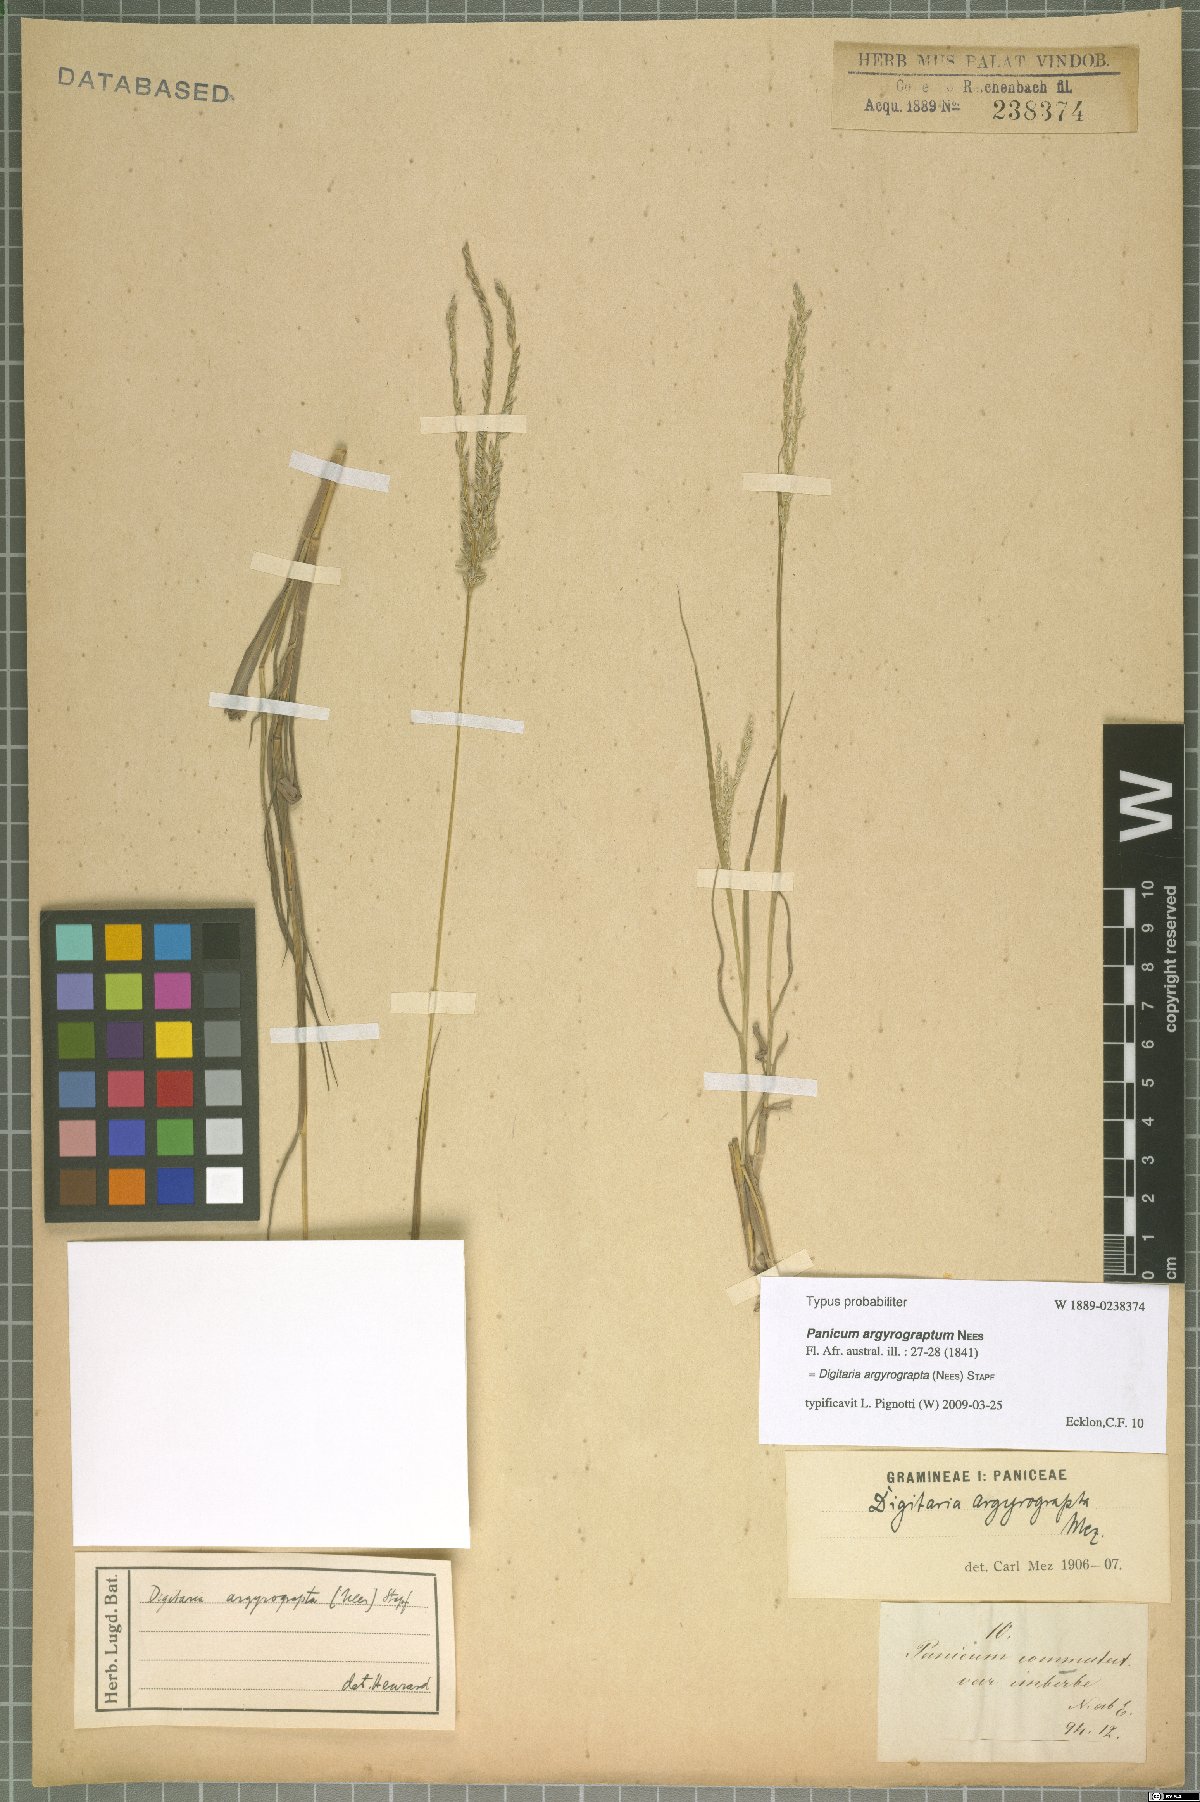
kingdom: Plantae
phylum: Tracheophyta
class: Liliopsida
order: Poales
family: Poaceae
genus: Digitaria
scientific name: Digitaria argyrograpta
